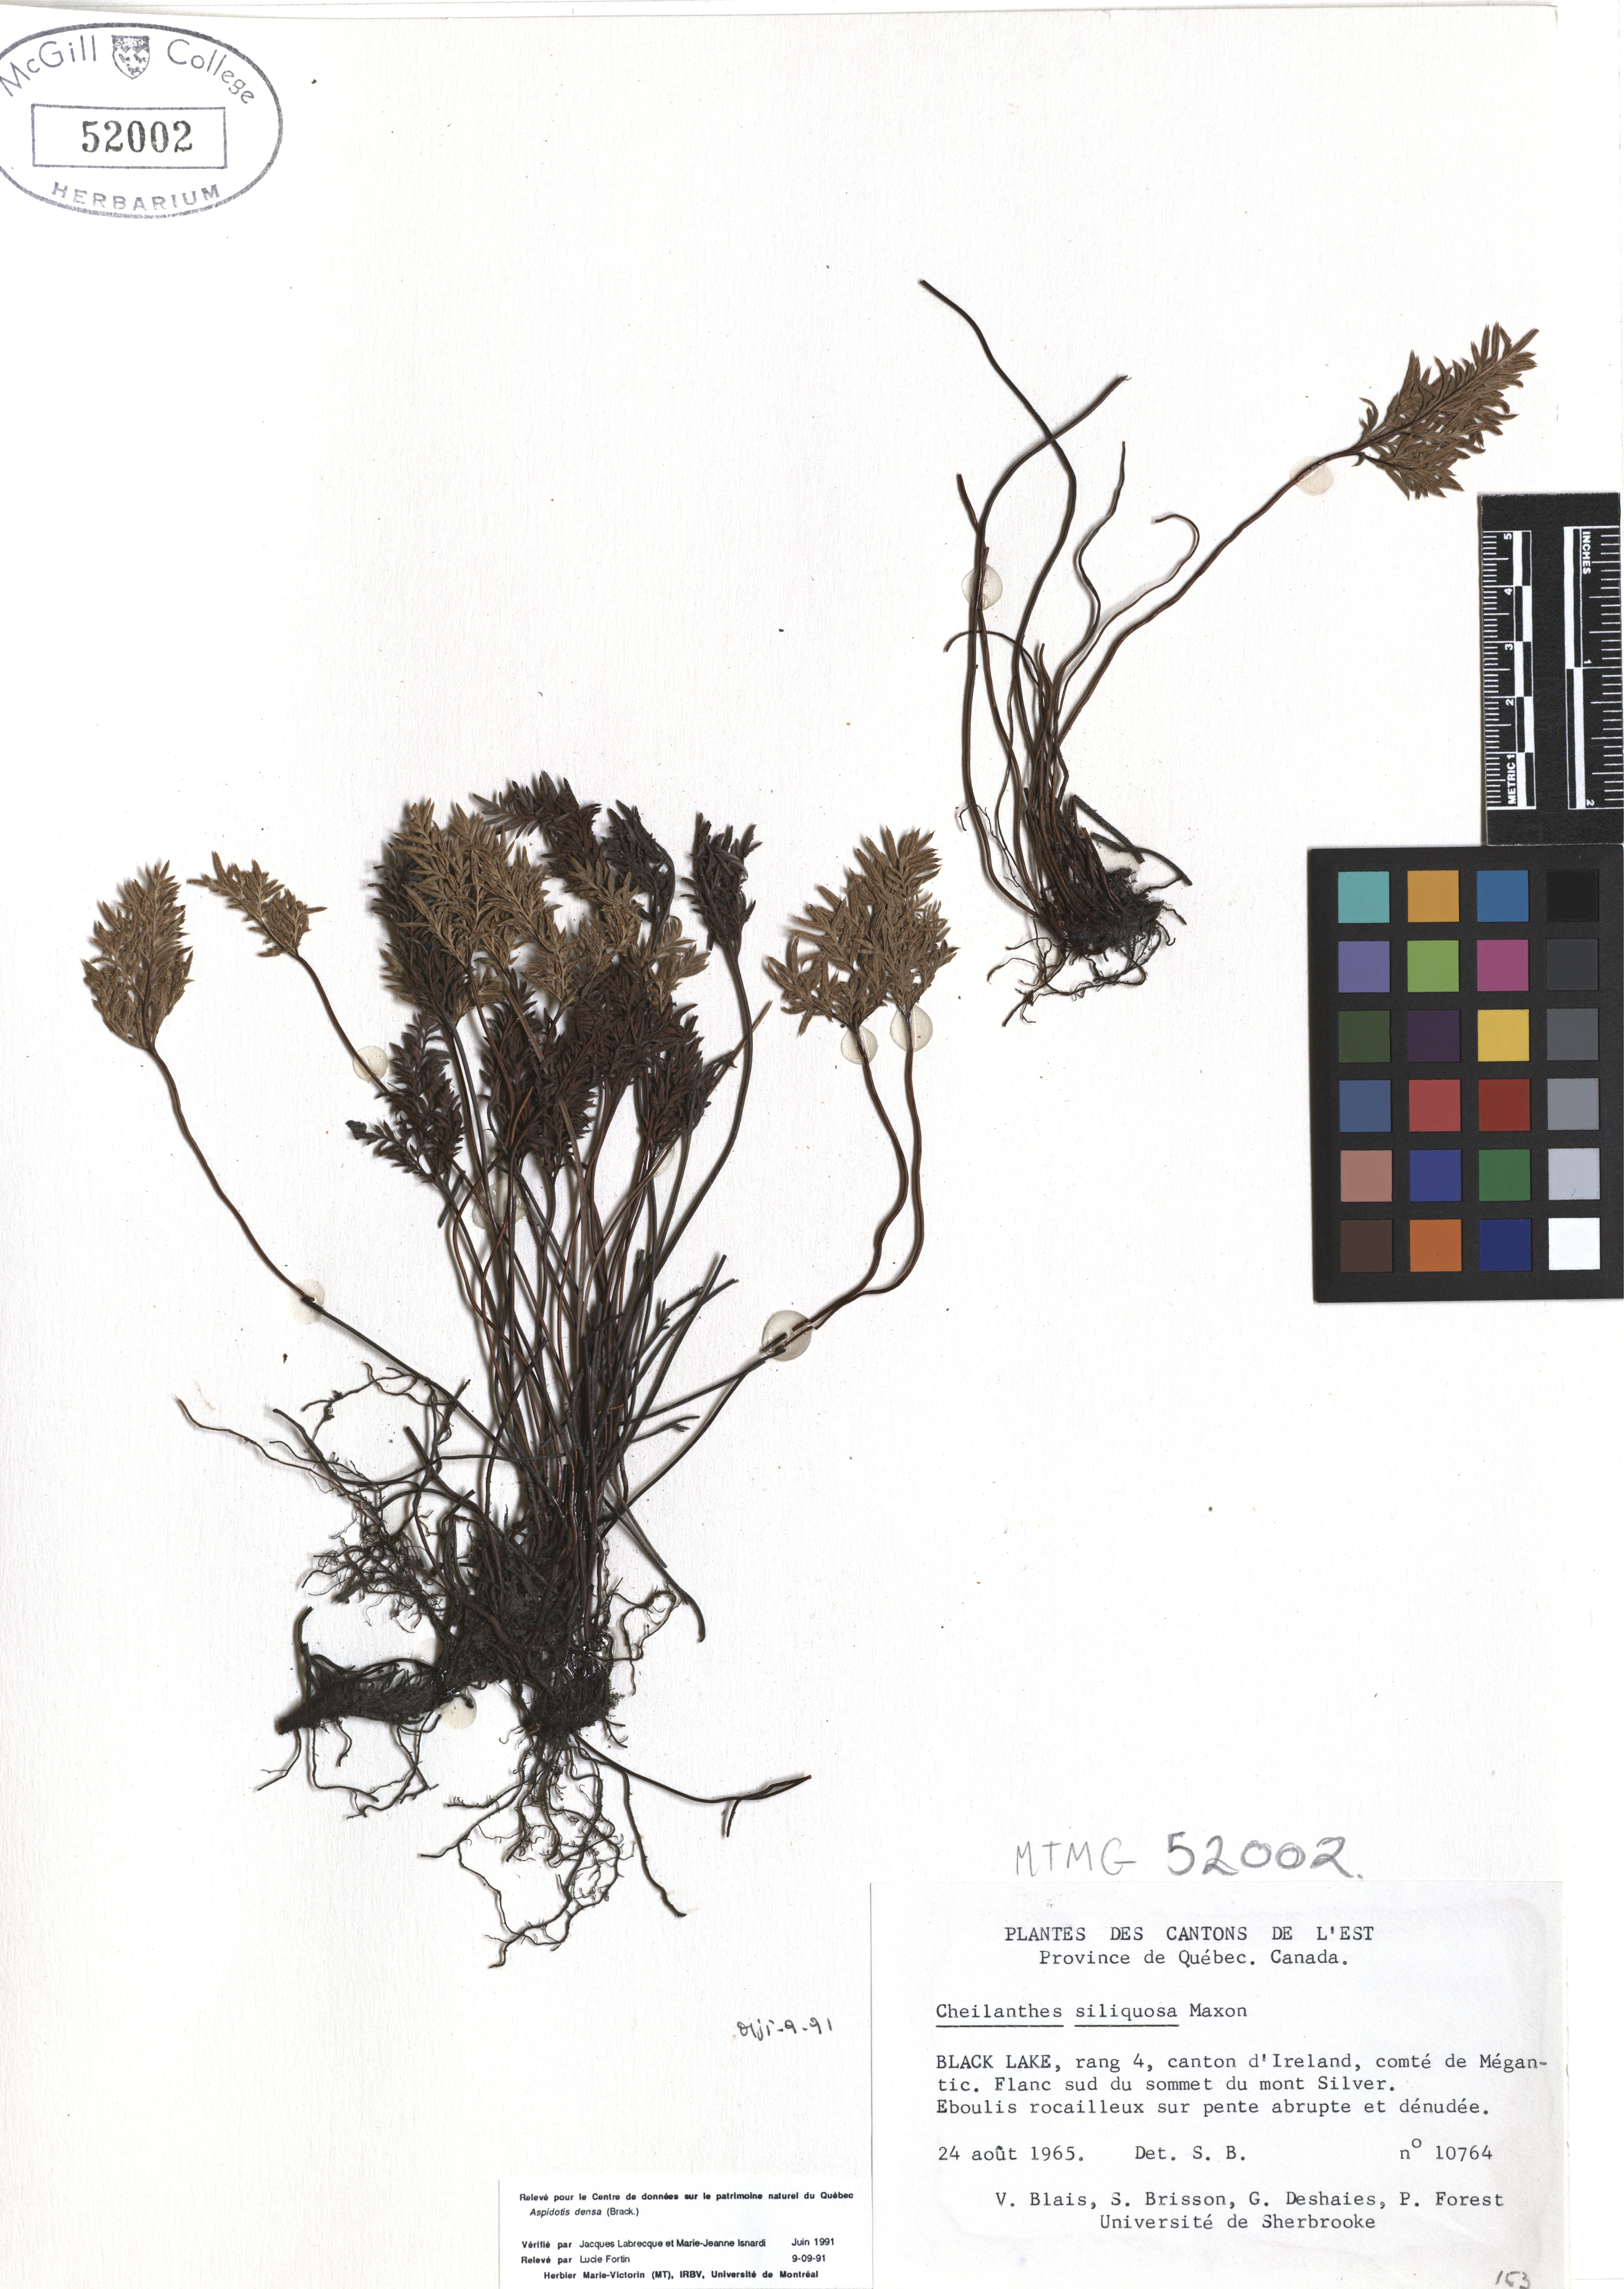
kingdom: Plantae
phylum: Tracheophyta
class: Polypodiopsida
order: Polypodiales
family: Pteridaceae
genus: Aspidotis
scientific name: Aspidotis densa
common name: Indian's dream
